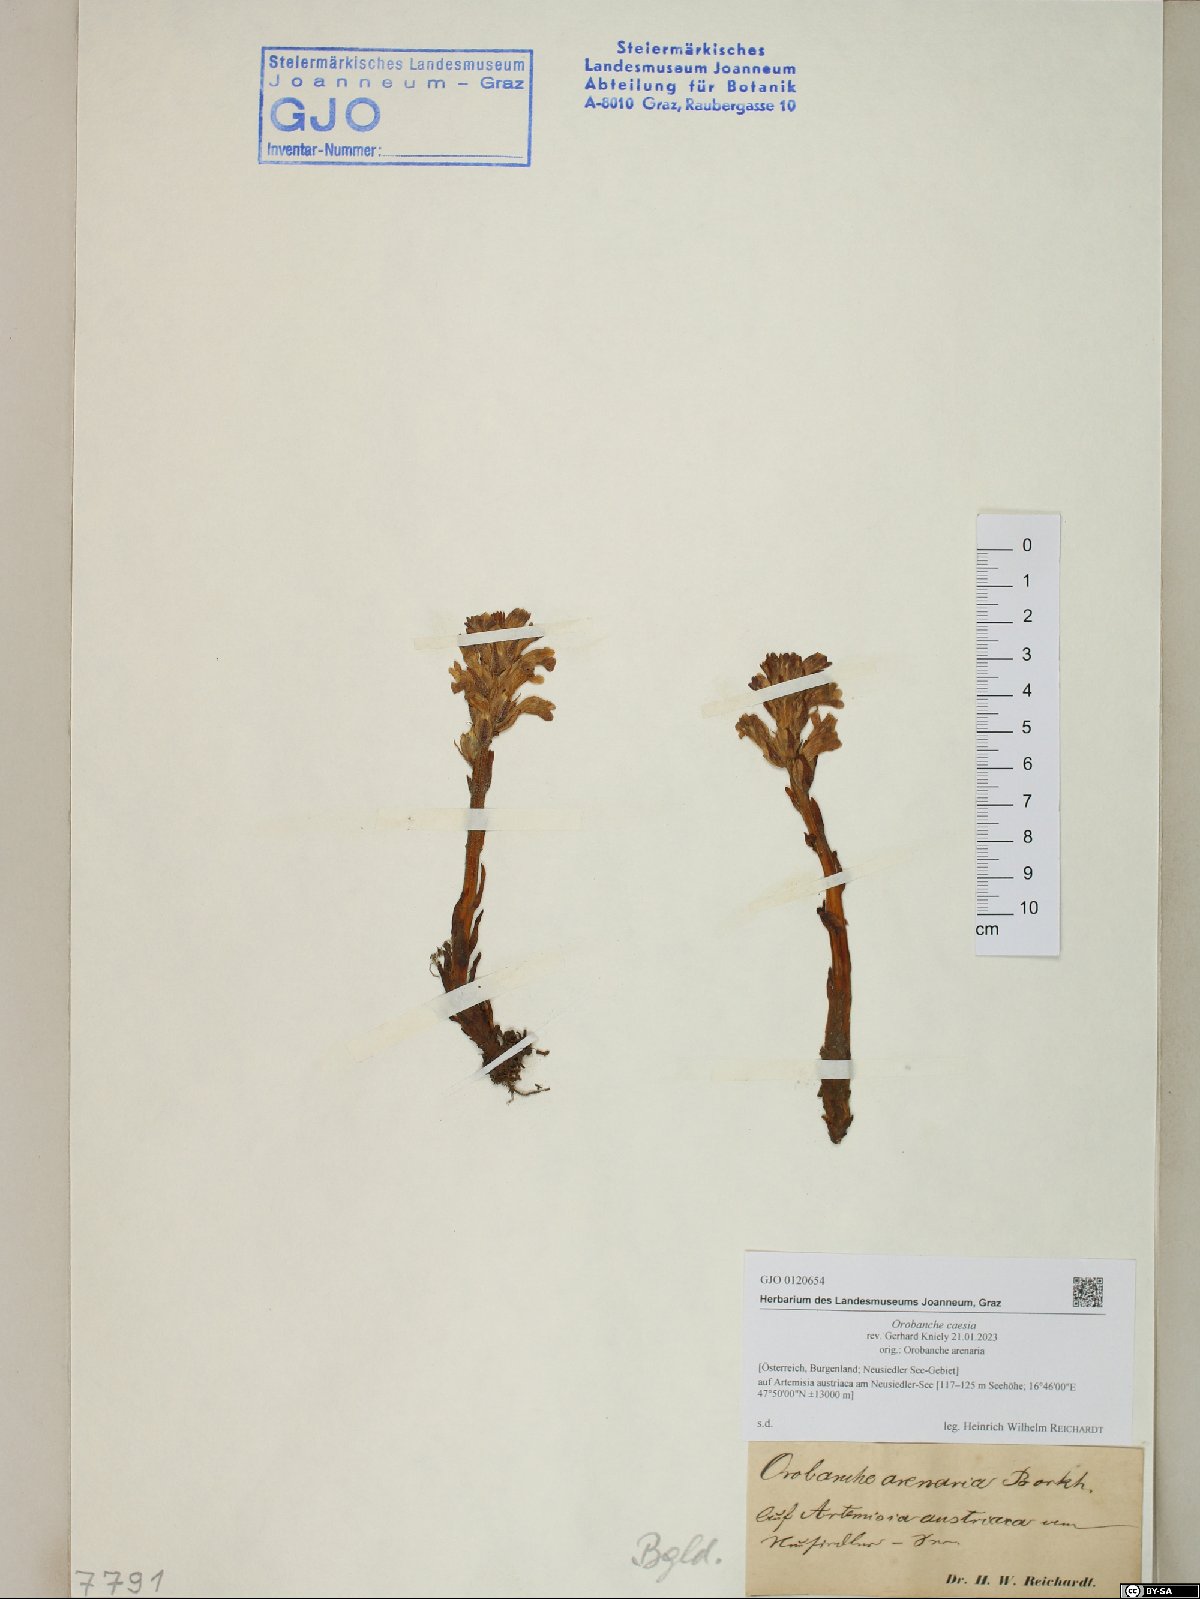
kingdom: Plantae
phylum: Tracheophyta
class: Magnoliopsida
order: Lamiales
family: Orobanchaceae
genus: Phelipanche
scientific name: Phelipanche caesia
